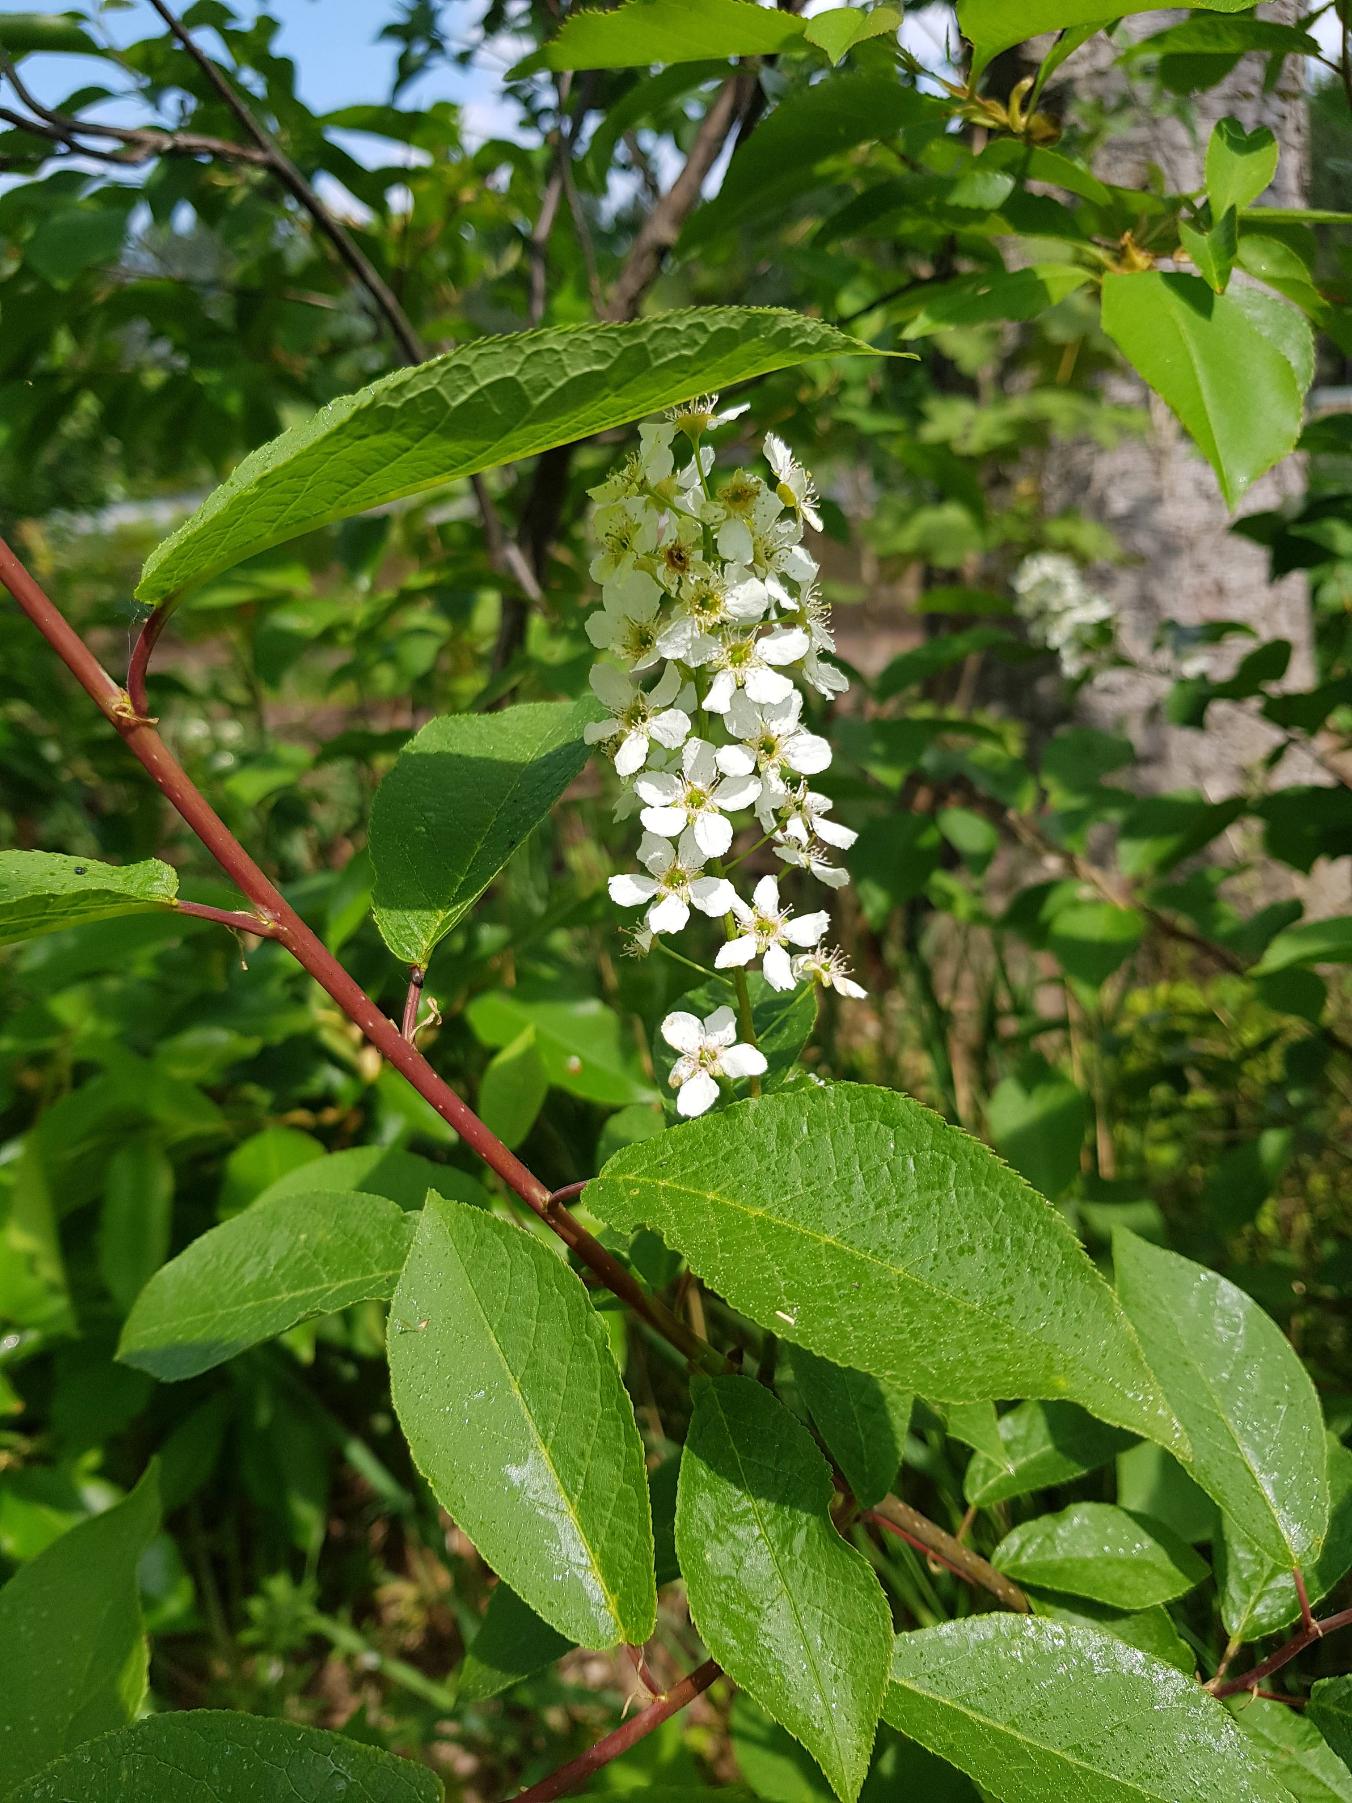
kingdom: Plantae
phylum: Tracheophyta
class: Magnoliopsida
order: Rosales
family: Rosaceae
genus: Prunus
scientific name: Prunus padus
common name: Almindelig hæg
